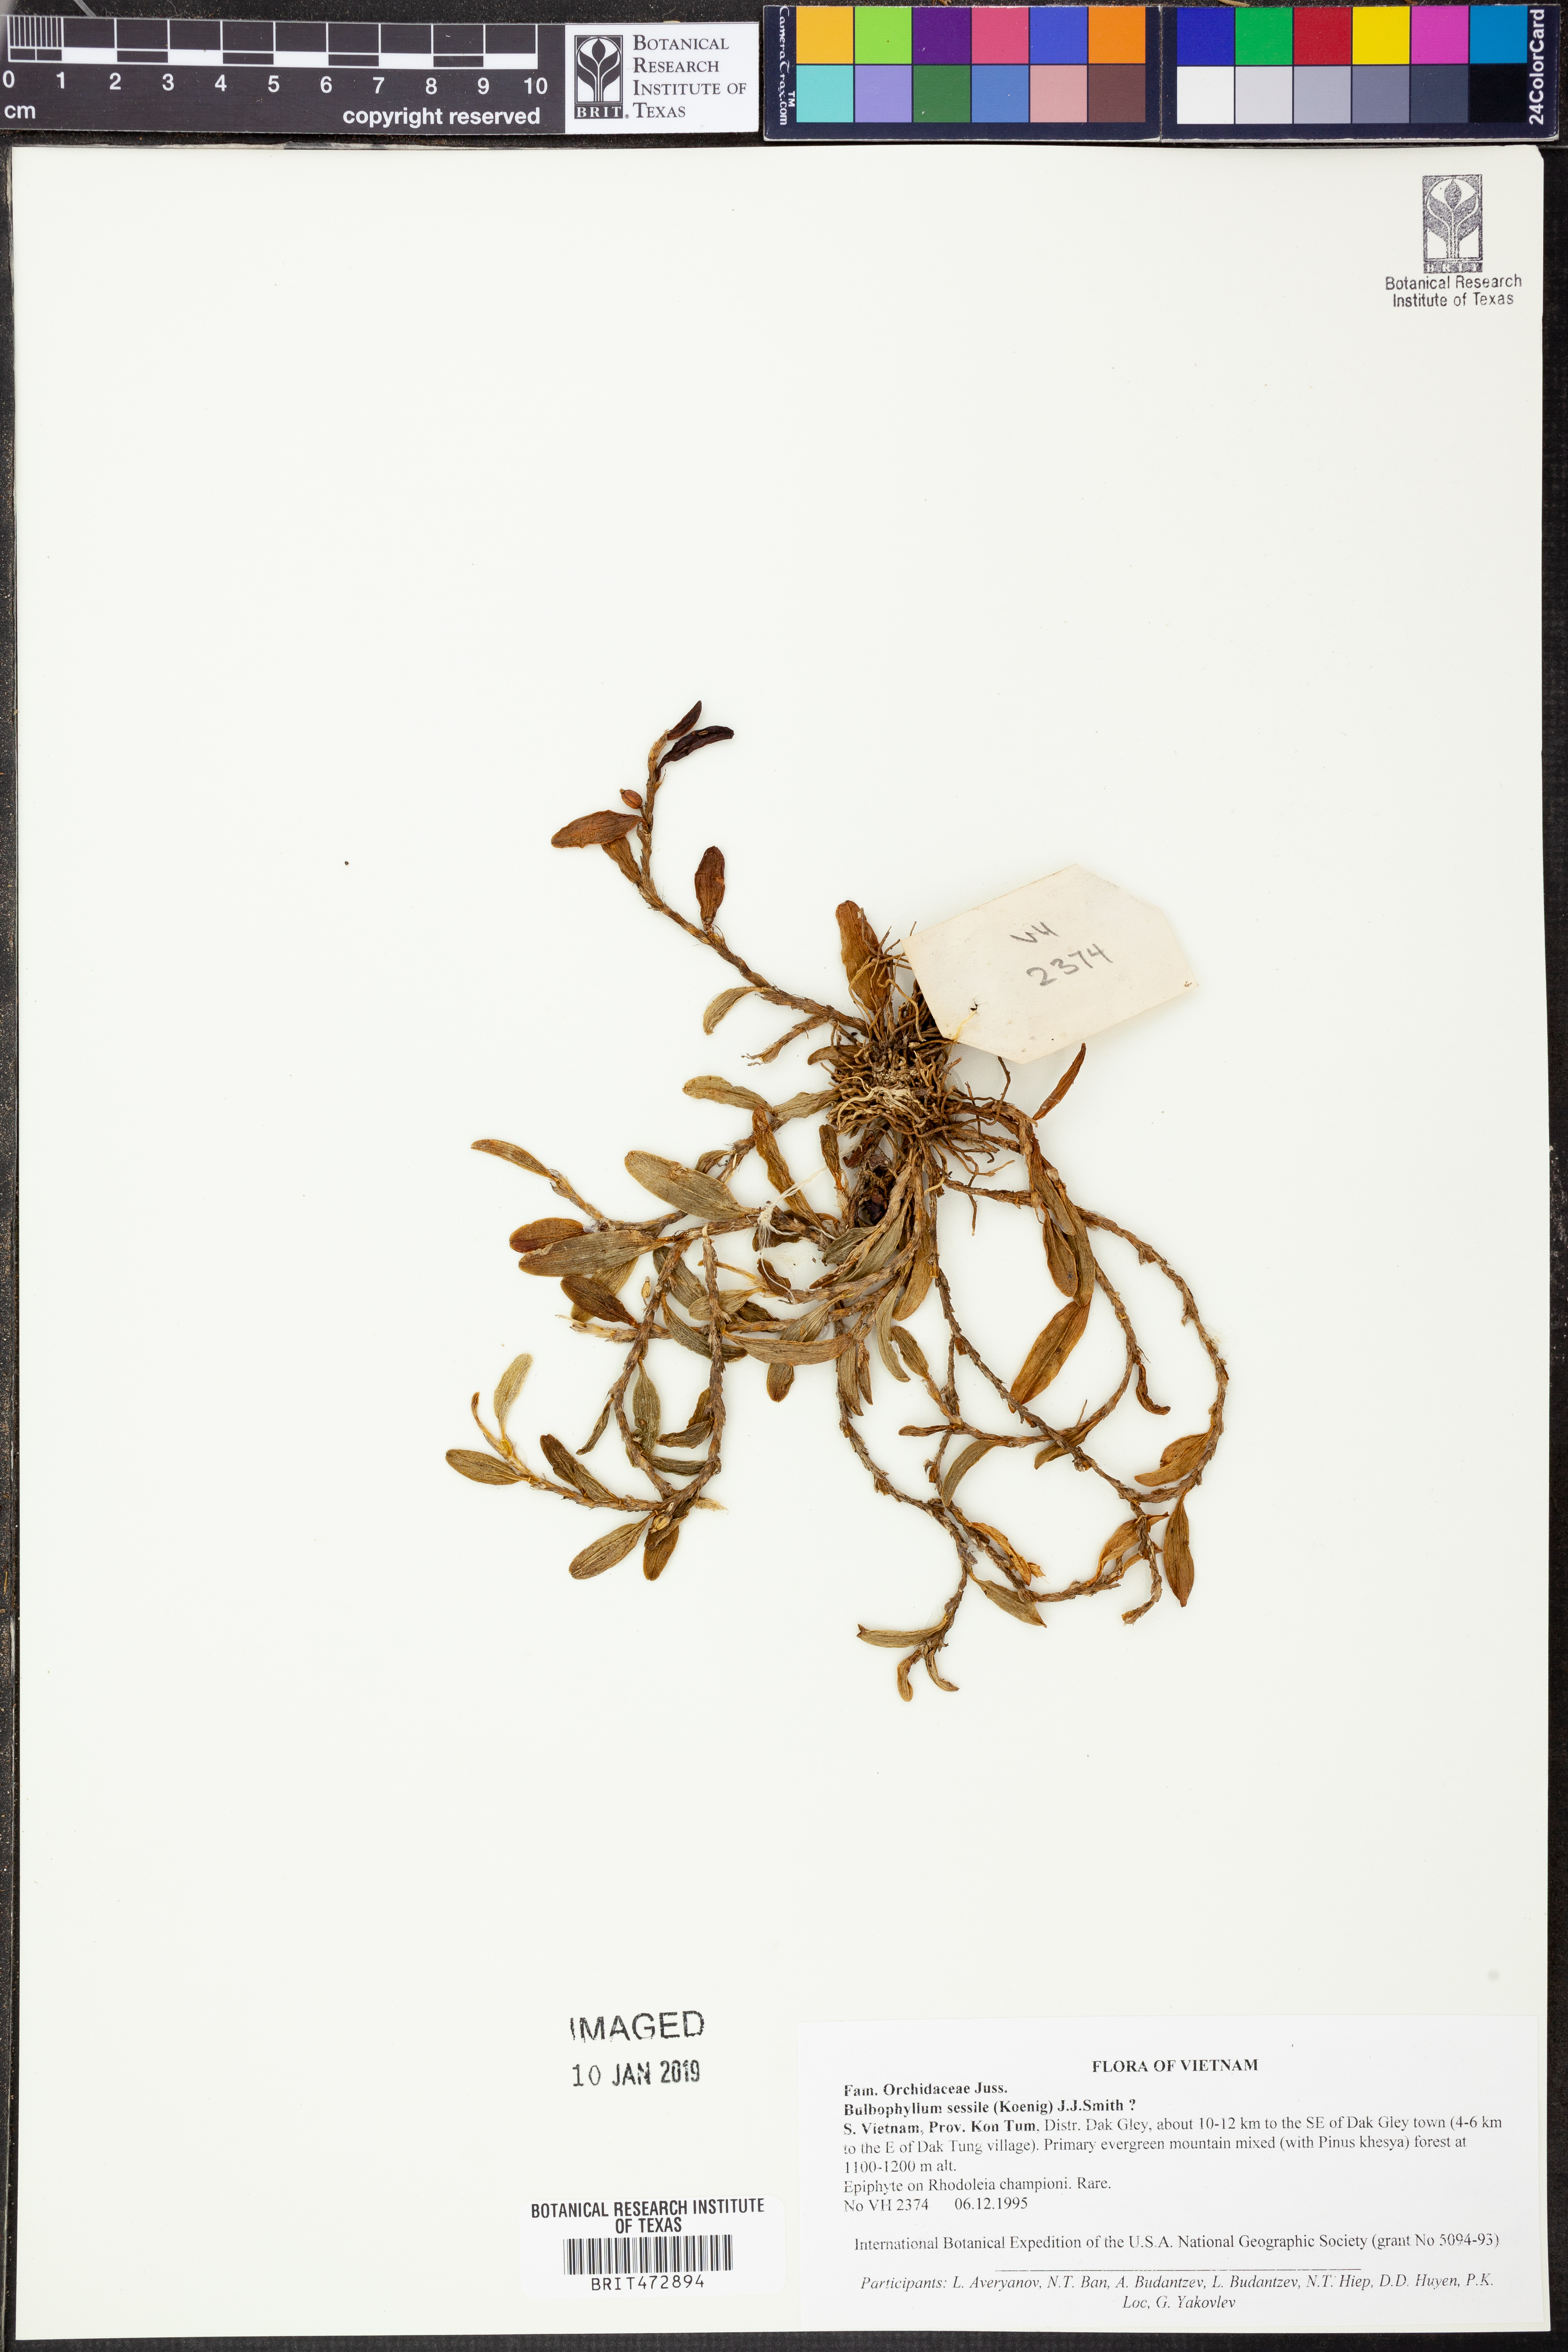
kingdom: Plantae
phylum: Tracheophyta
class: Liliopsida
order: Asparagales
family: Orchidaceae
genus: Bulbophyllum
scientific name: Bulbophyllum clandestinum
